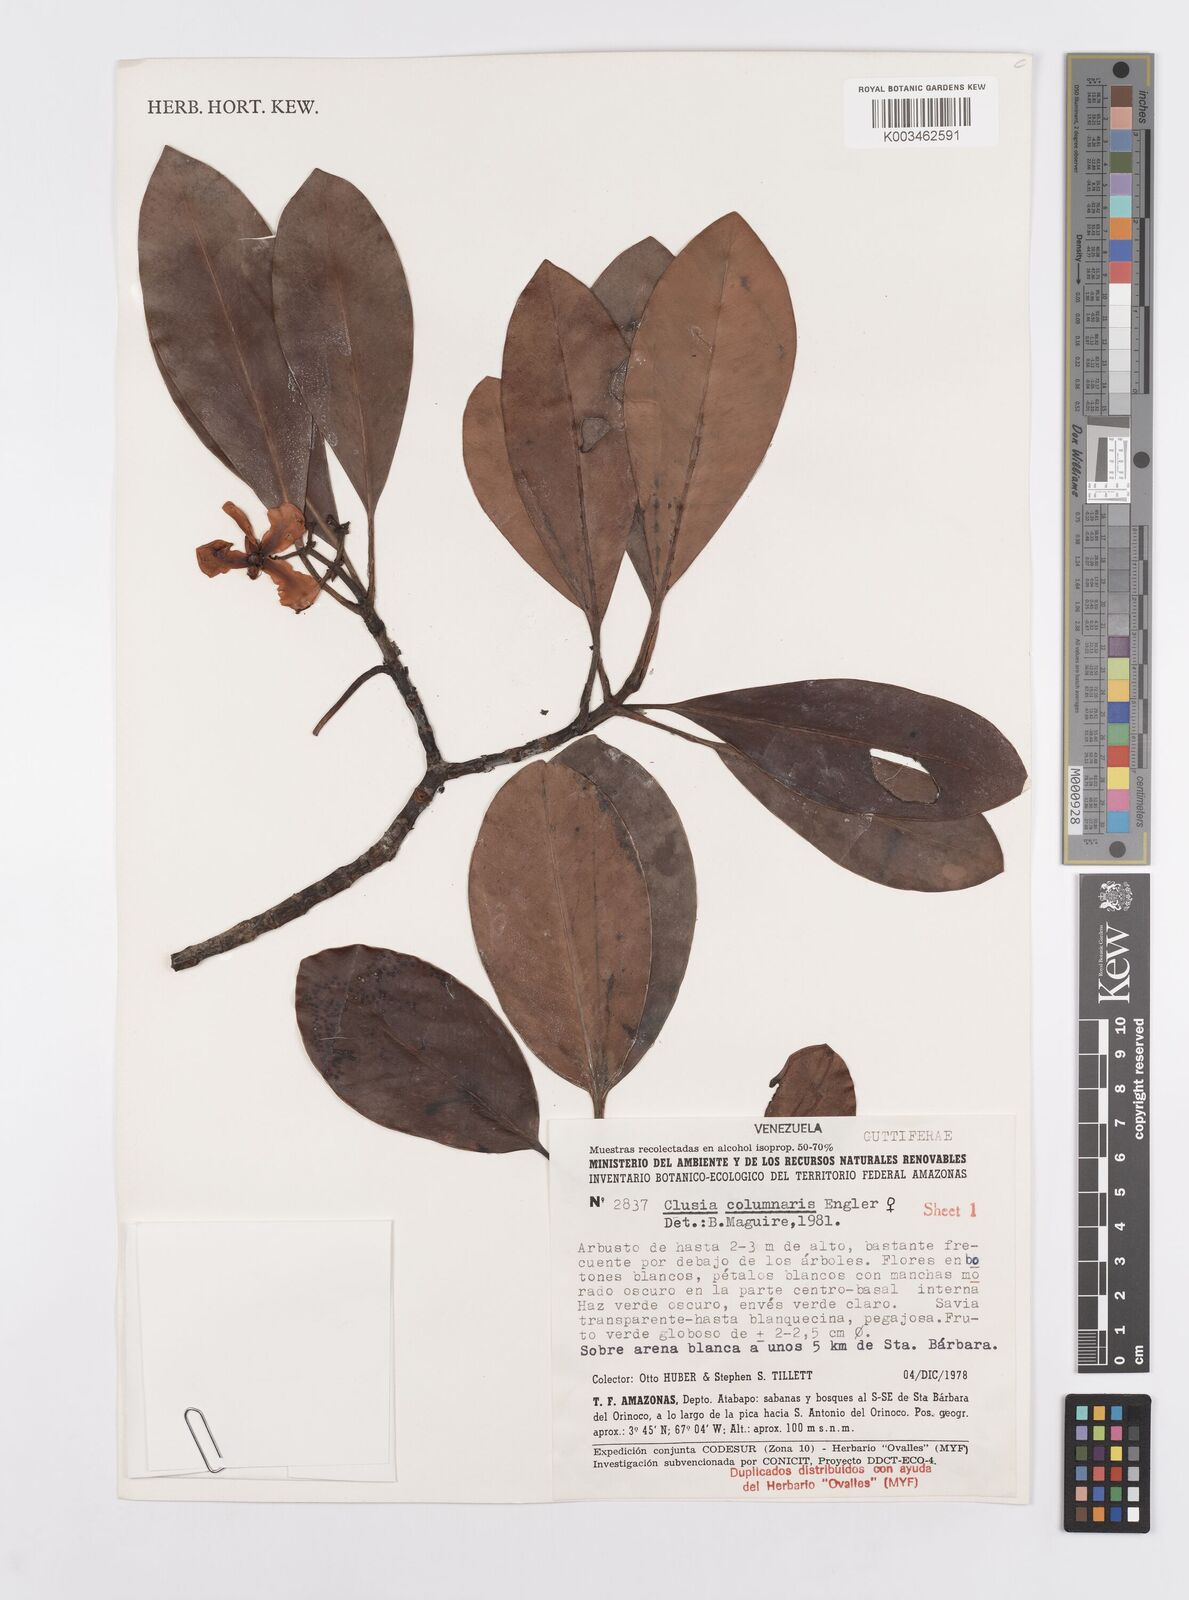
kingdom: Plantae
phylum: Tracheophyta
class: Magnoliopsida
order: Malpighiales
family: Clusiaceae
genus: Clusia
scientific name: Clusia columnaris
